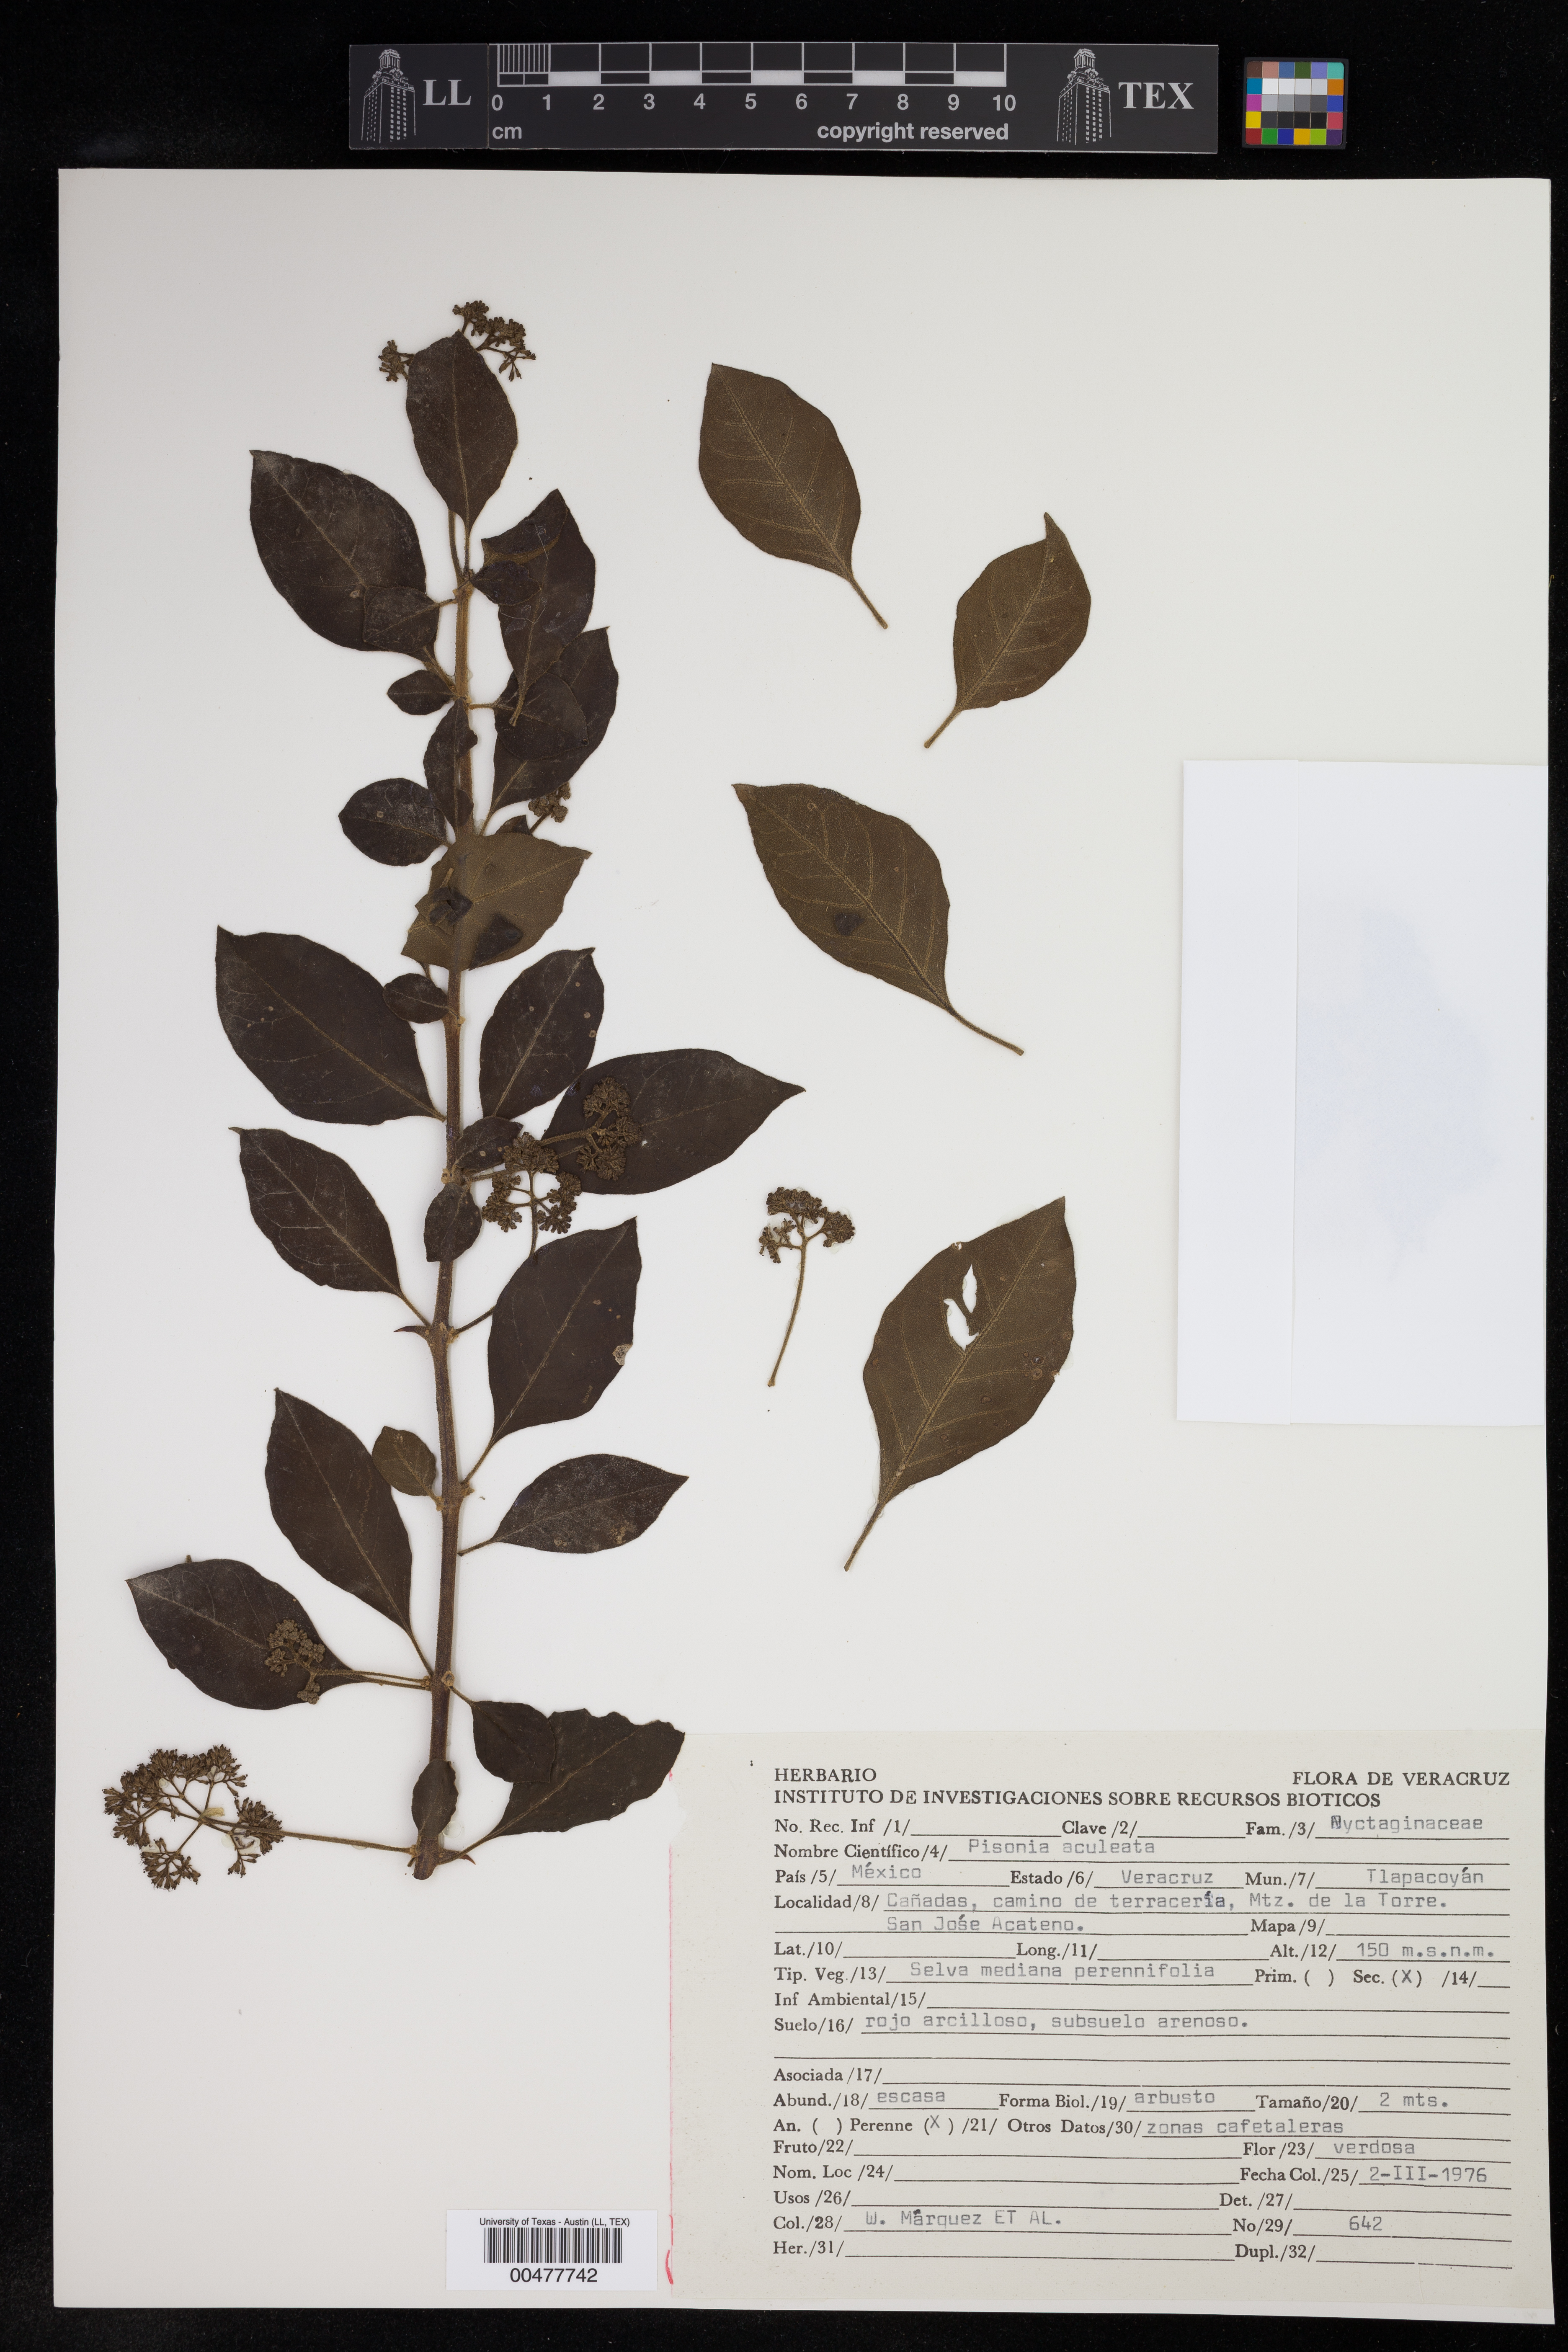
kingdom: Plantae
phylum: Tracheophyta
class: Magnoliopsida
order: Caryophyllales
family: Nyctaginaceae
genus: Pisonia
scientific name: Pisonia aculeata
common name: Cockspur vine
